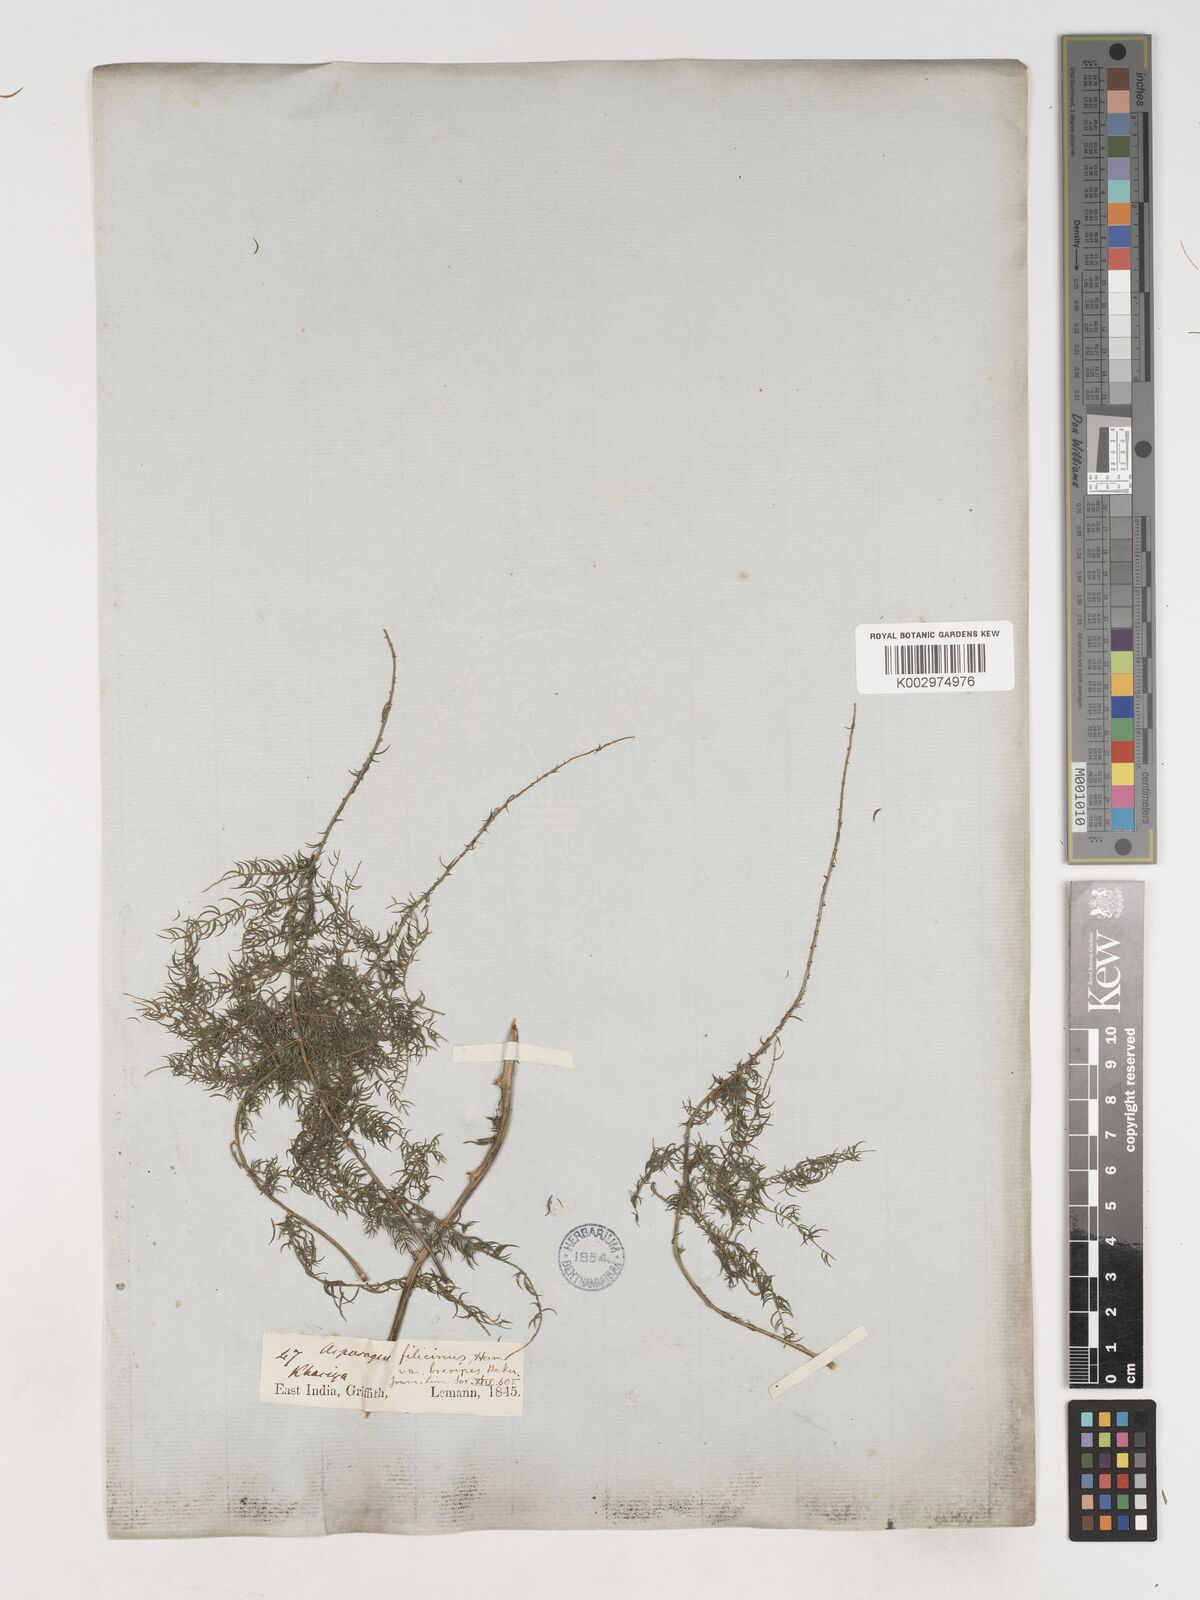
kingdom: Plantae
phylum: Tracheophyta
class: Liliopsida
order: Asparagales
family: Asparagaceae
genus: Asparagus
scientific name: Asparagus filicinus
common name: Fern asparagus
